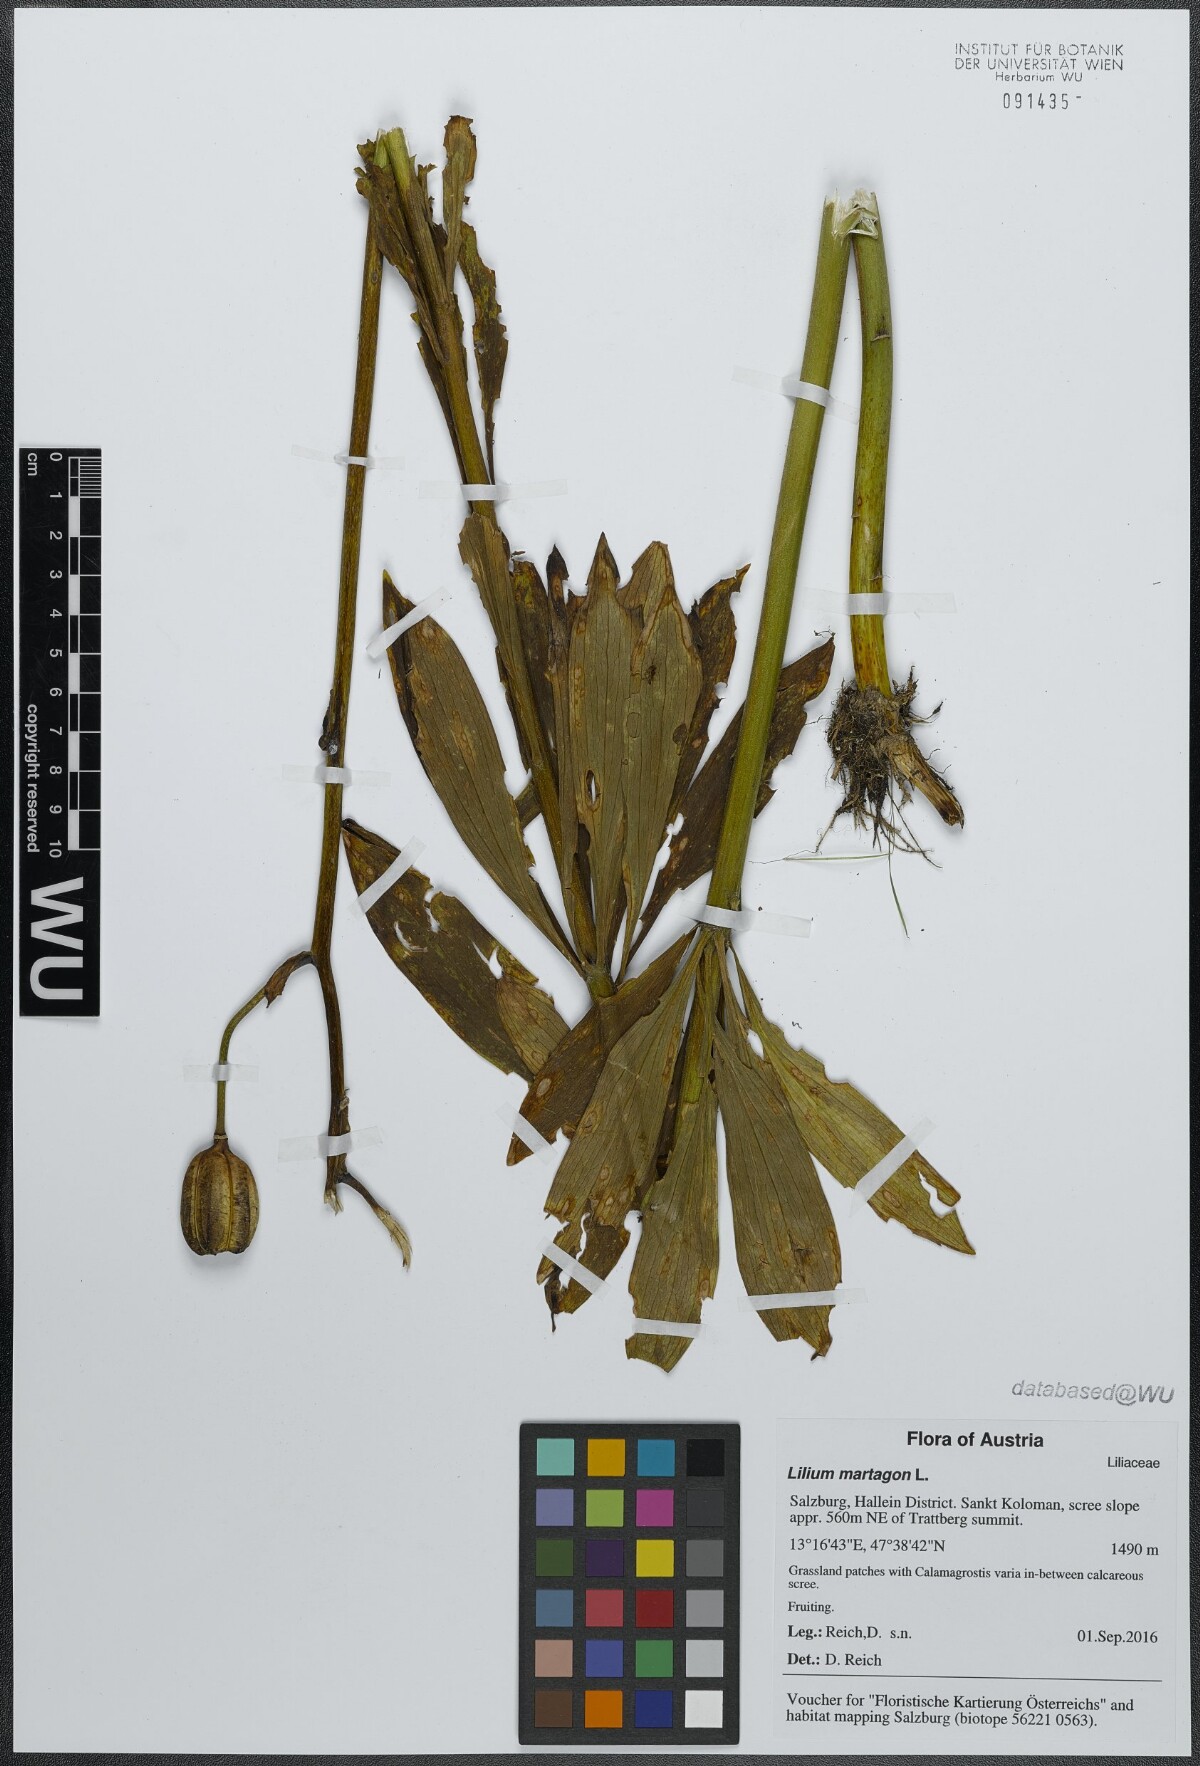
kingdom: Plantae
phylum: Tracheophyta
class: Liliopsida
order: Liliales
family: Liliaceae
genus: Lilium
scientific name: Lilium martagon
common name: Martagon lily
